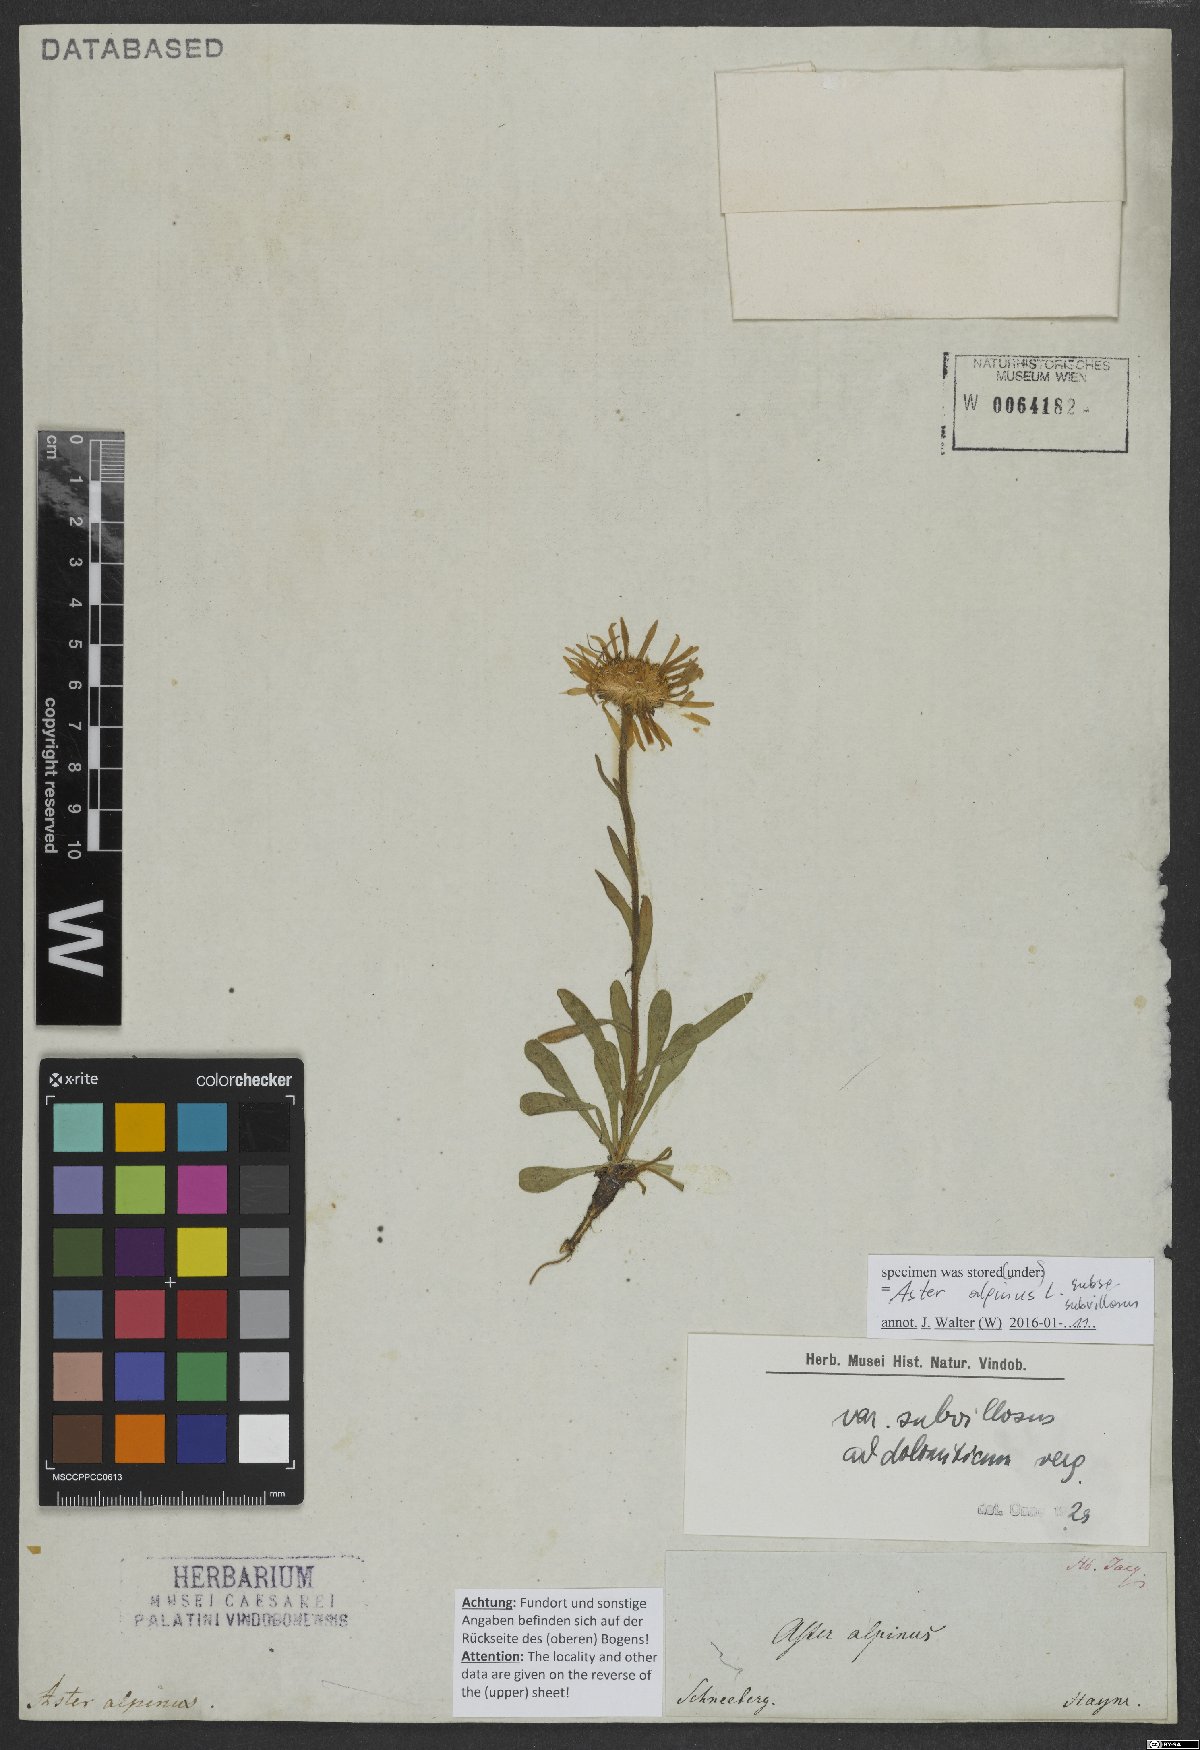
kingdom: Plantae
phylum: Tracheophyta
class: Magnoliopsida
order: Asterales
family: Asteraceae
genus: Aster
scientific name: Aster alpinus
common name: Alpine aster
